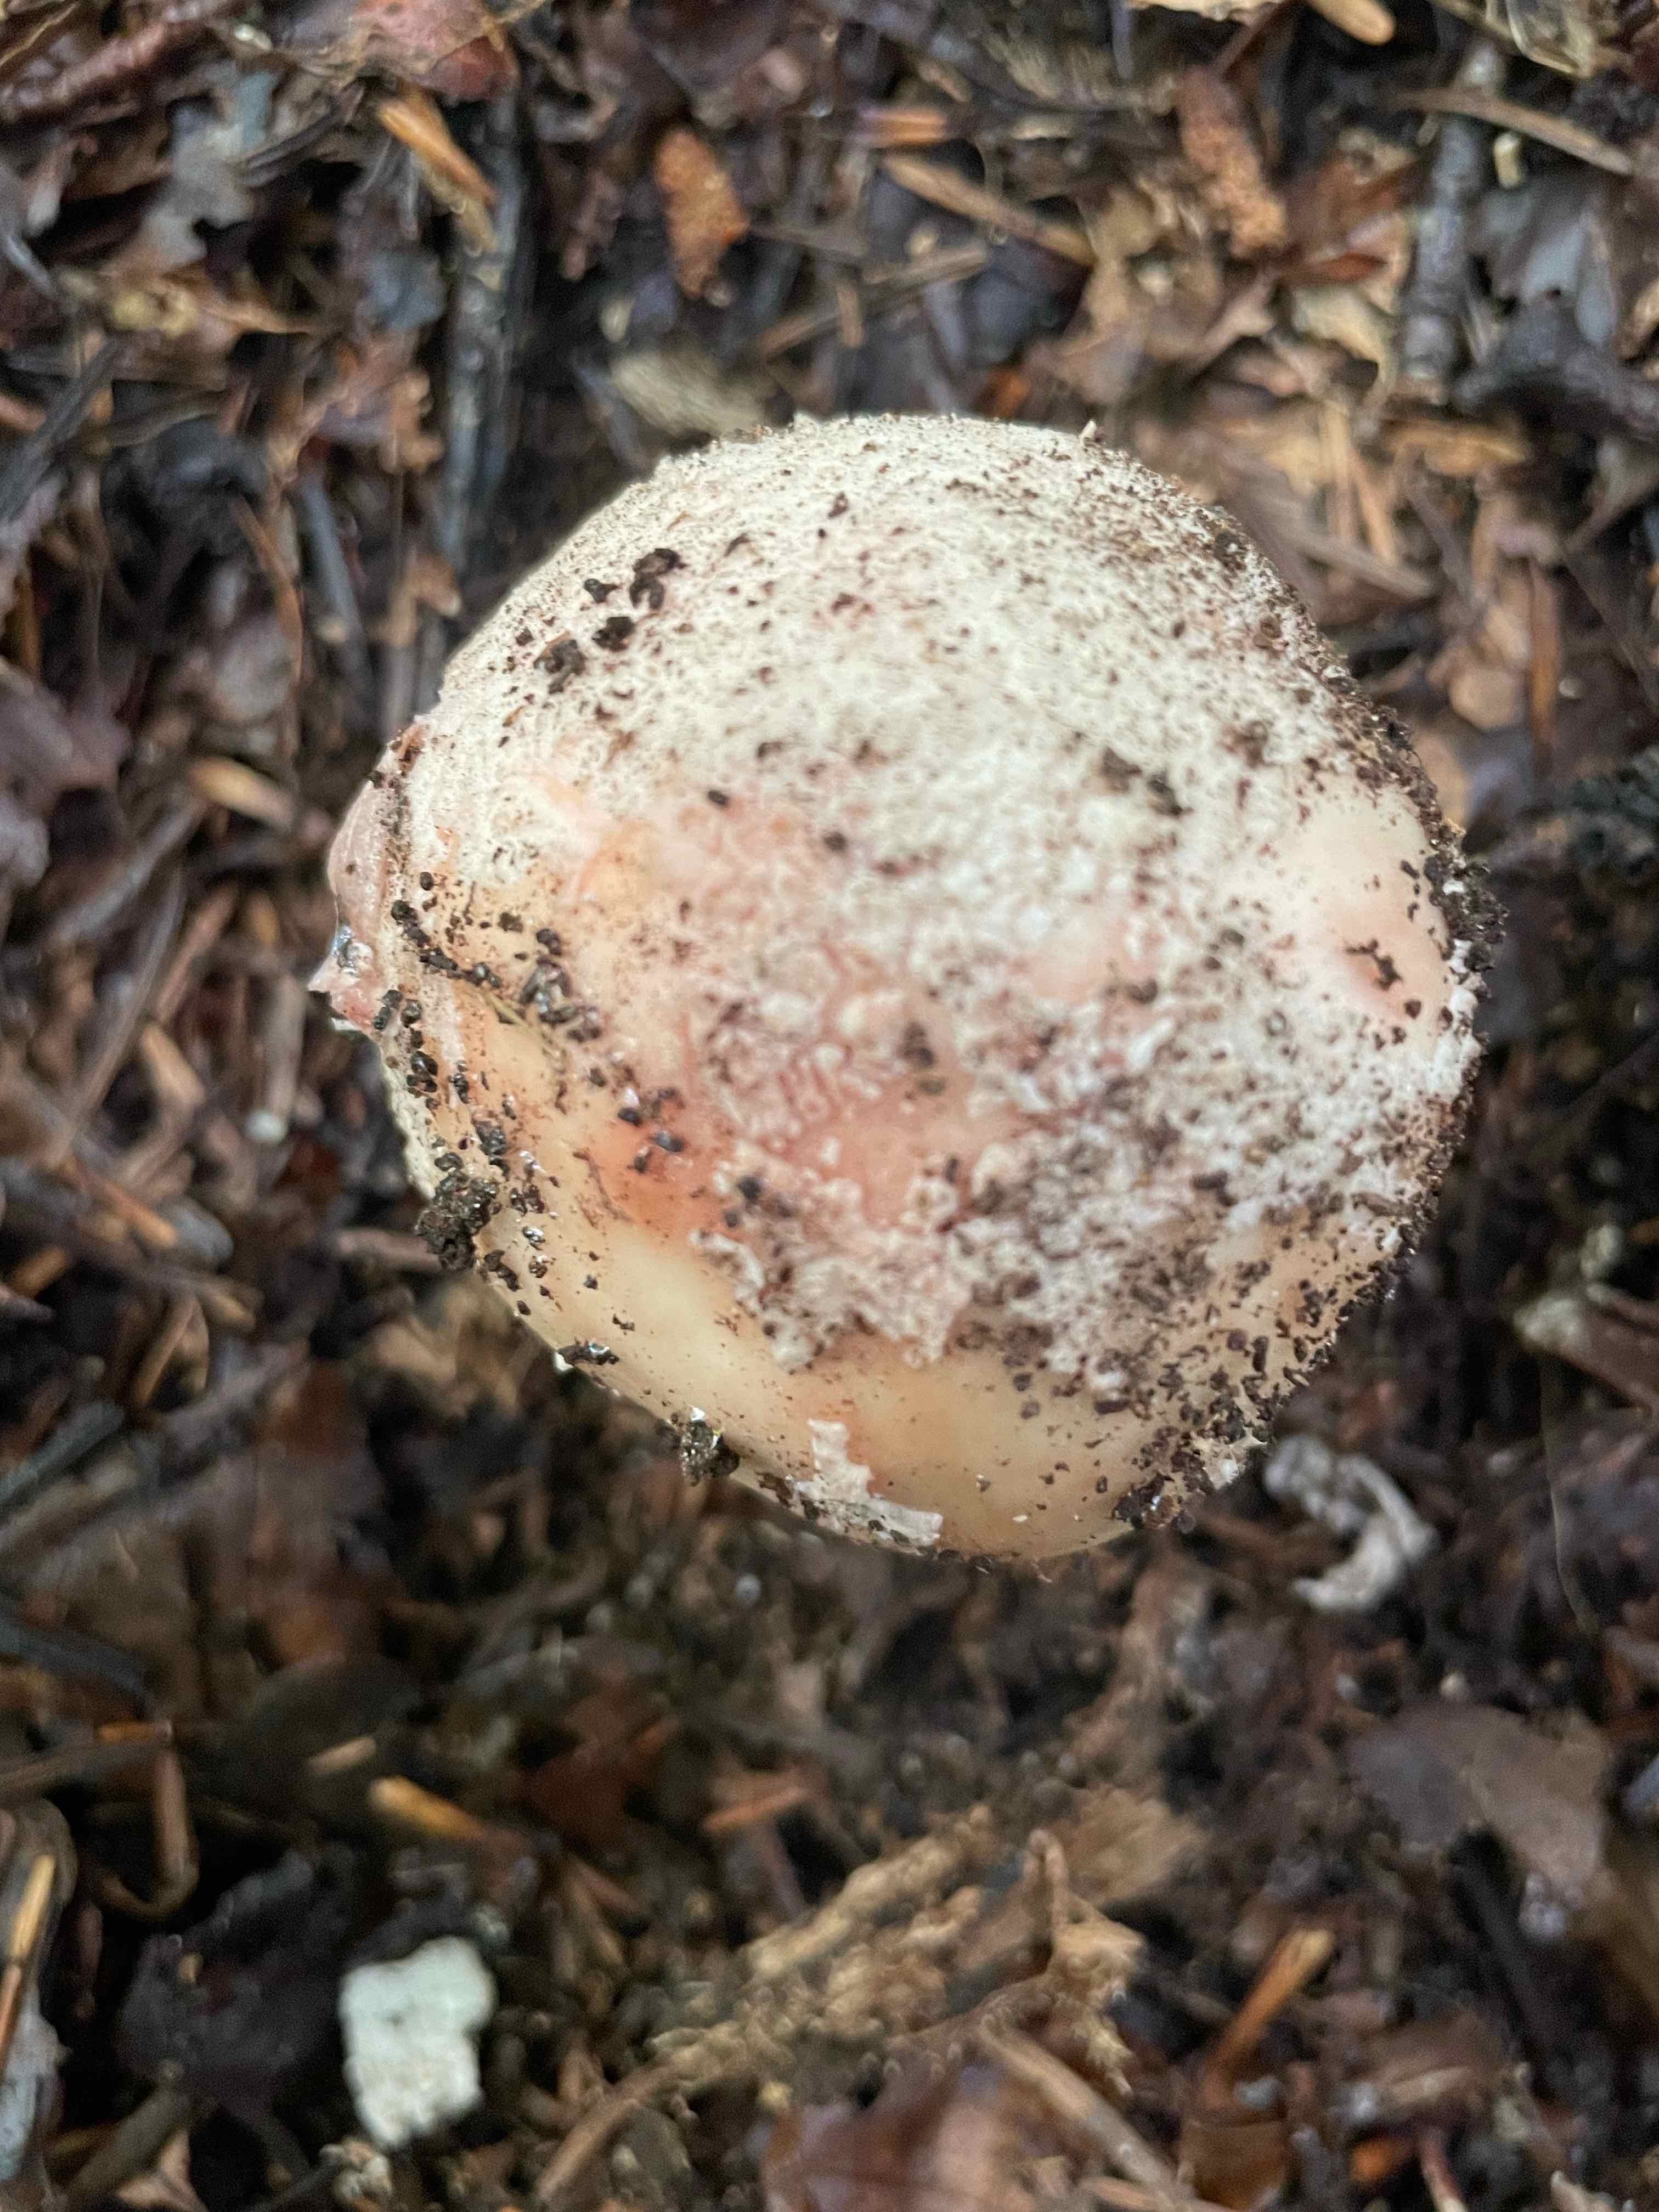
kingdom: Fungi
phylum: Basidiomycota
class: Agaricomycetes
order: Agaricales
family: Amanitaceae
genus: Amanita
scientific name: Amanita rubescens
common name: rødmende fluesvamp
